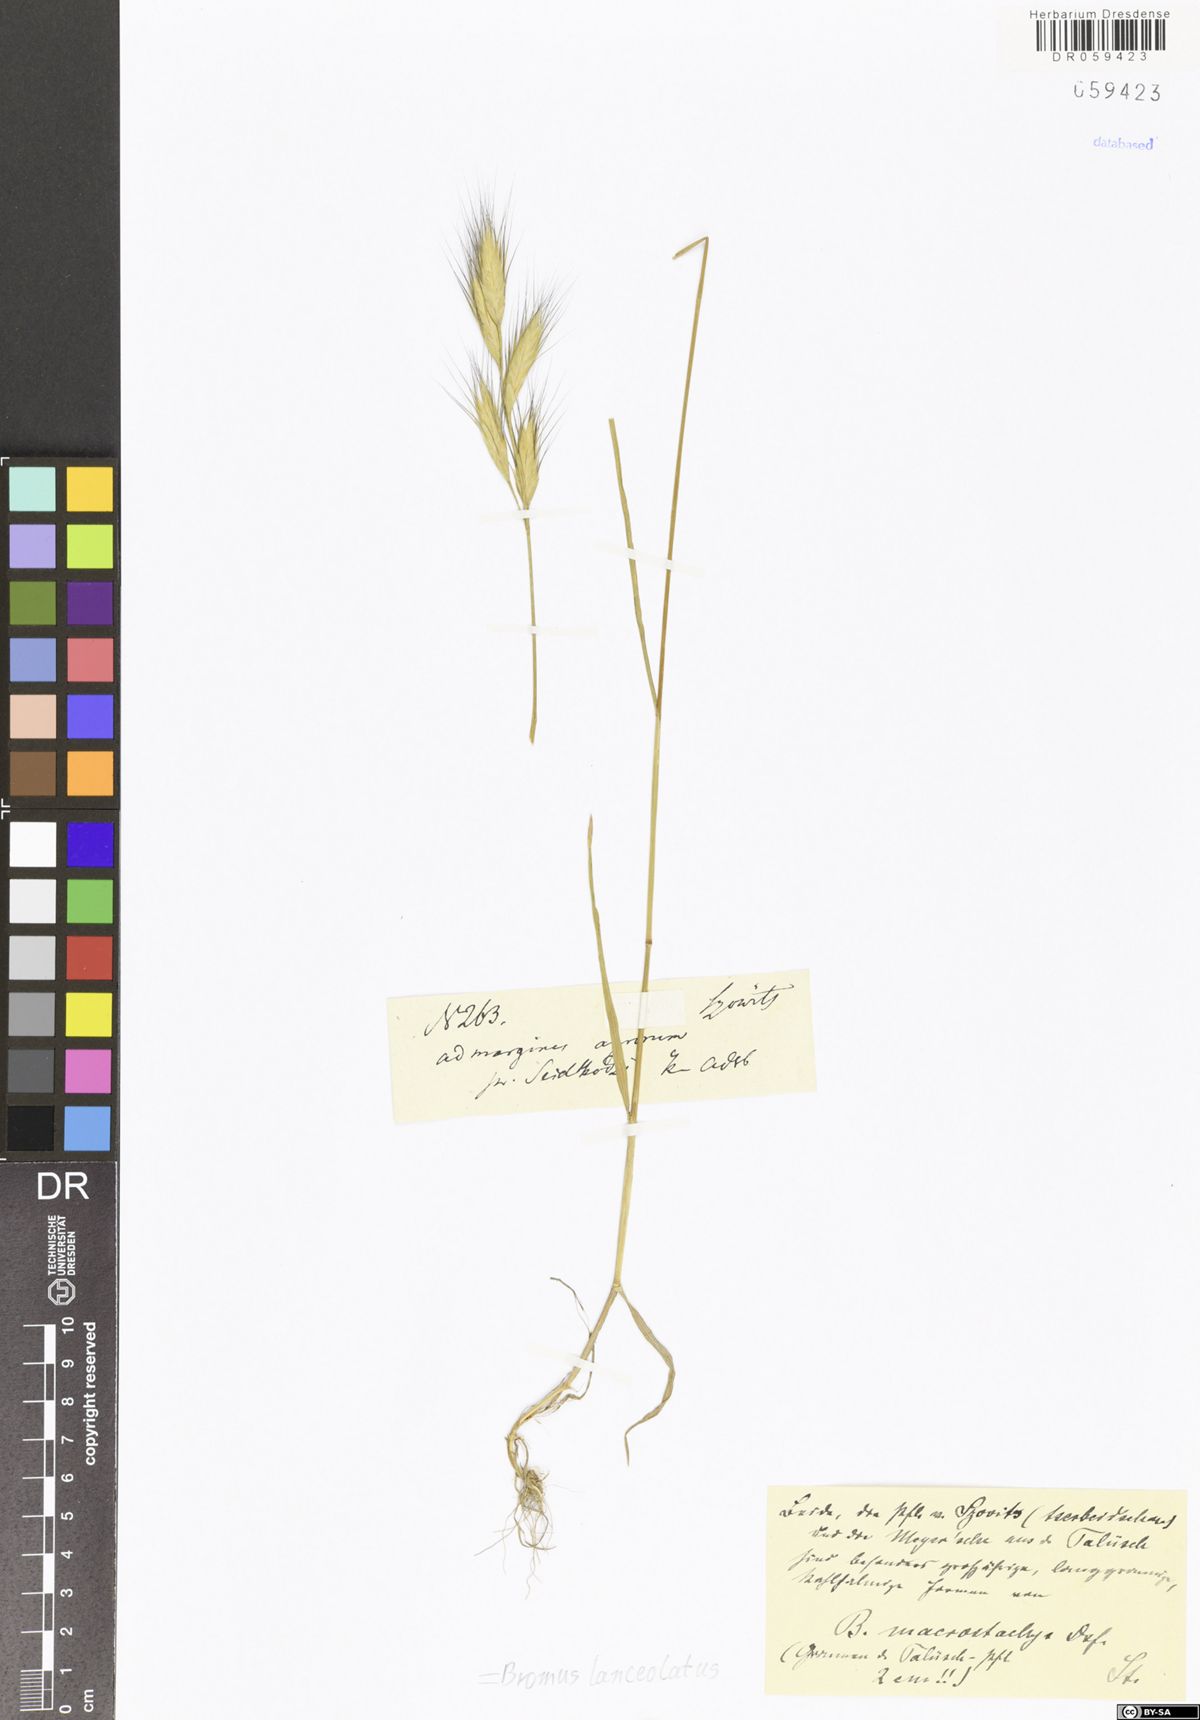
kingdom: Plantae
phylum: Tracheophyta
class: Liliopsida
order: Poales
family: Poaceae
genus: Bromus
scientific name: Bromus lanceolatus
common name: Mediterranean brome
